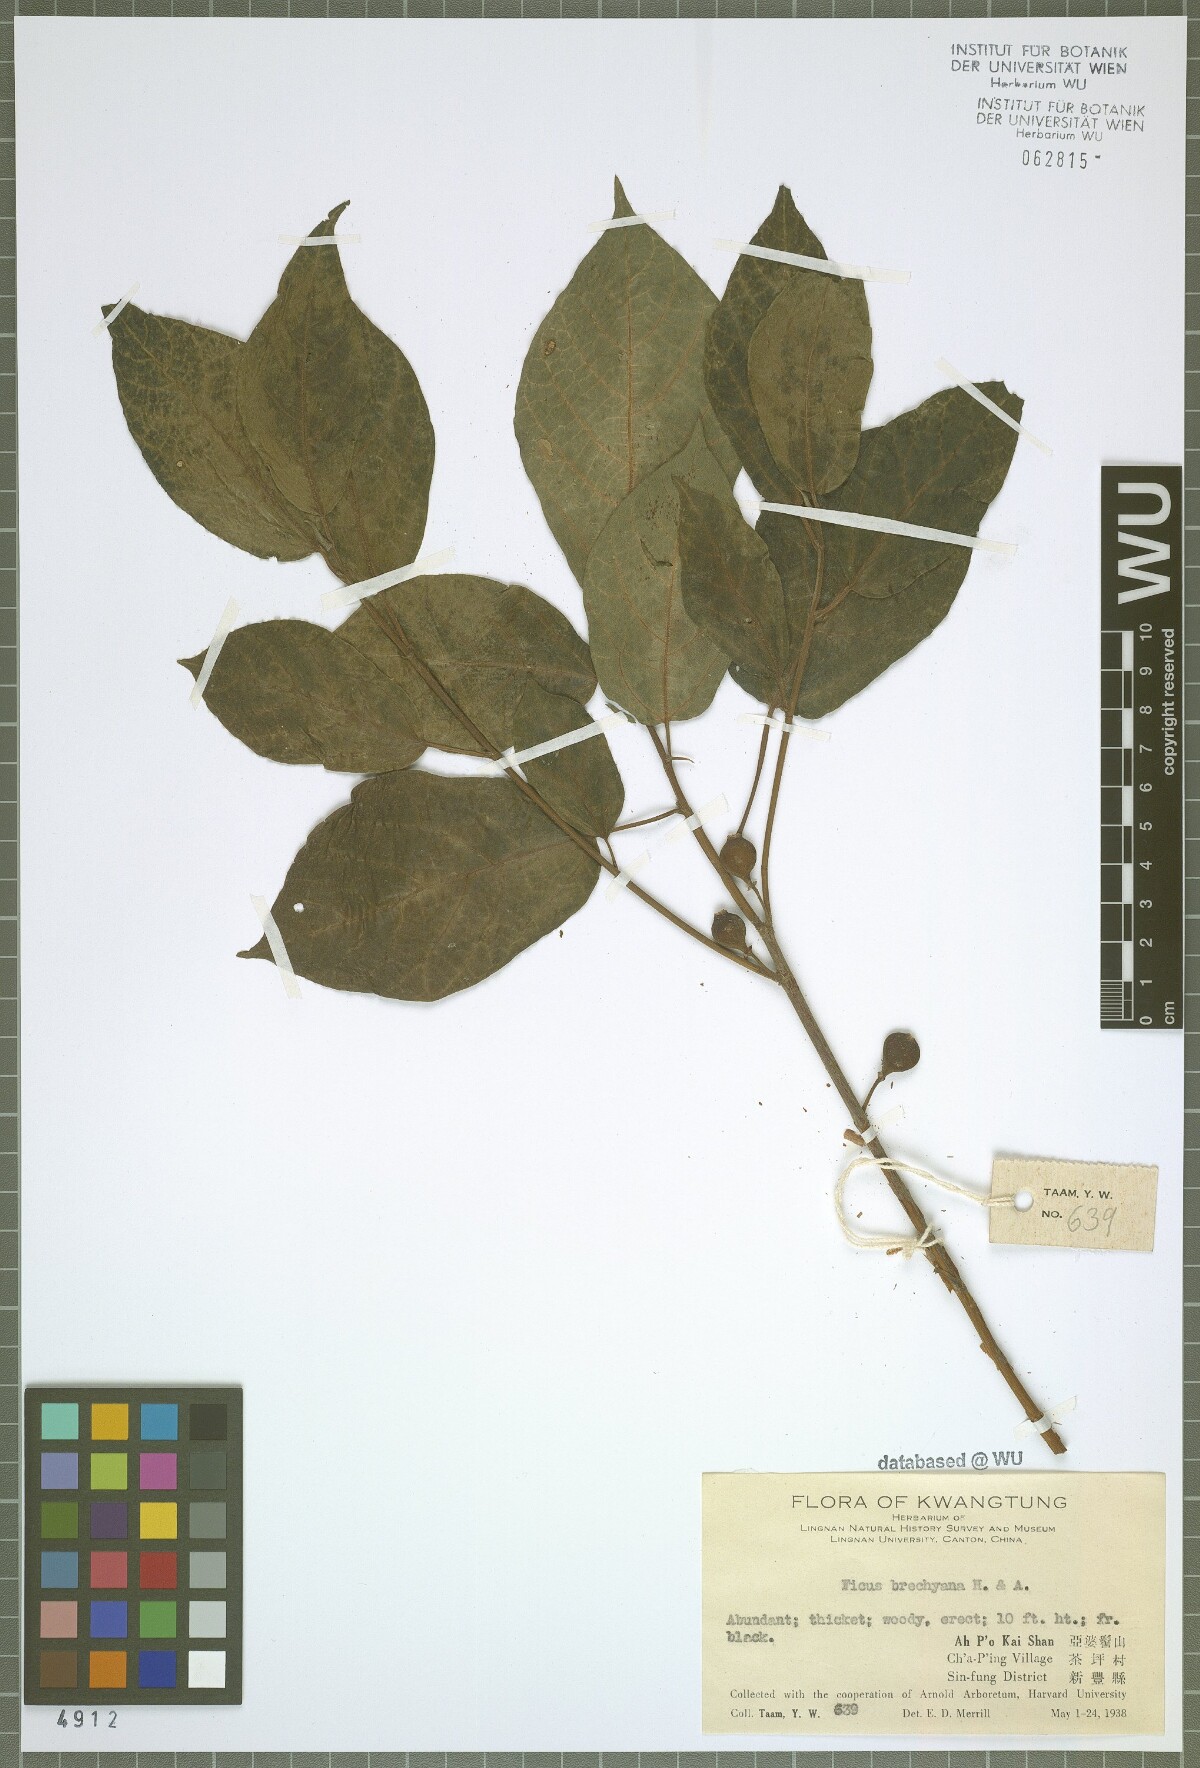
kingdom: Plantae
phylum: Tracheophyta
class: Magnoliopsida
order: Rosales
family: Moraceae
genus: Ficus
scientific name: Ficus erecta
